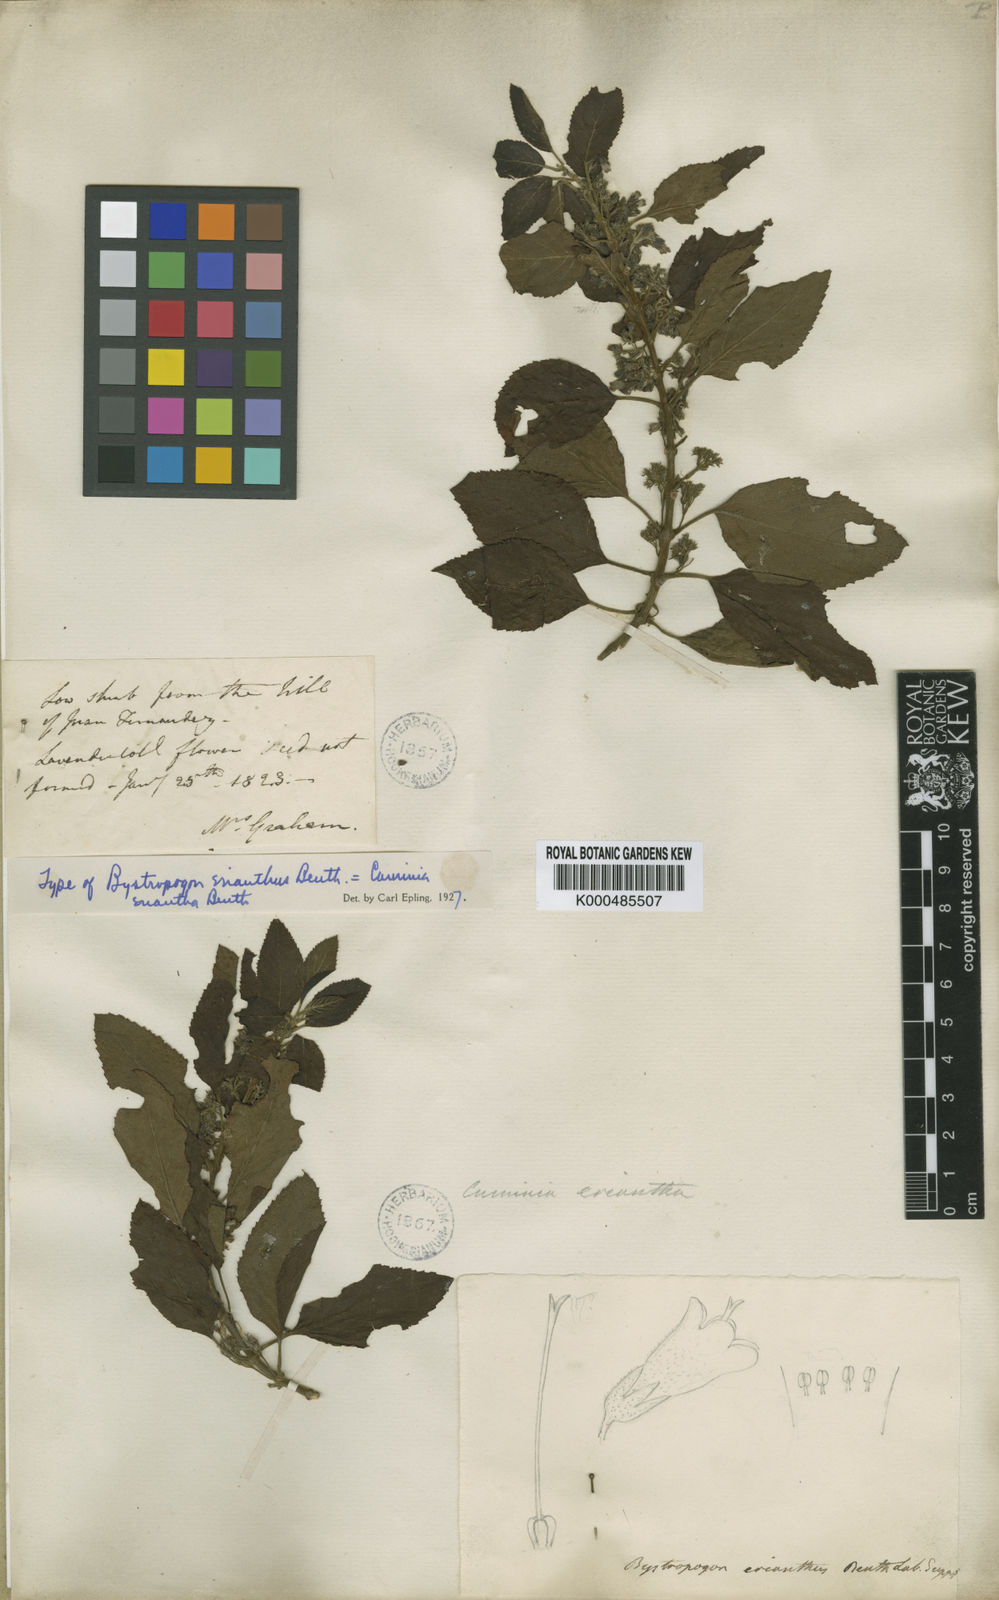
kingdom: Plantae
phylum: Tracheophyta
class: Magnoliopsida
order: Lamiales
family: Lamiaceae
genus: Cuminia
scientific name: Cuminia eriantha
